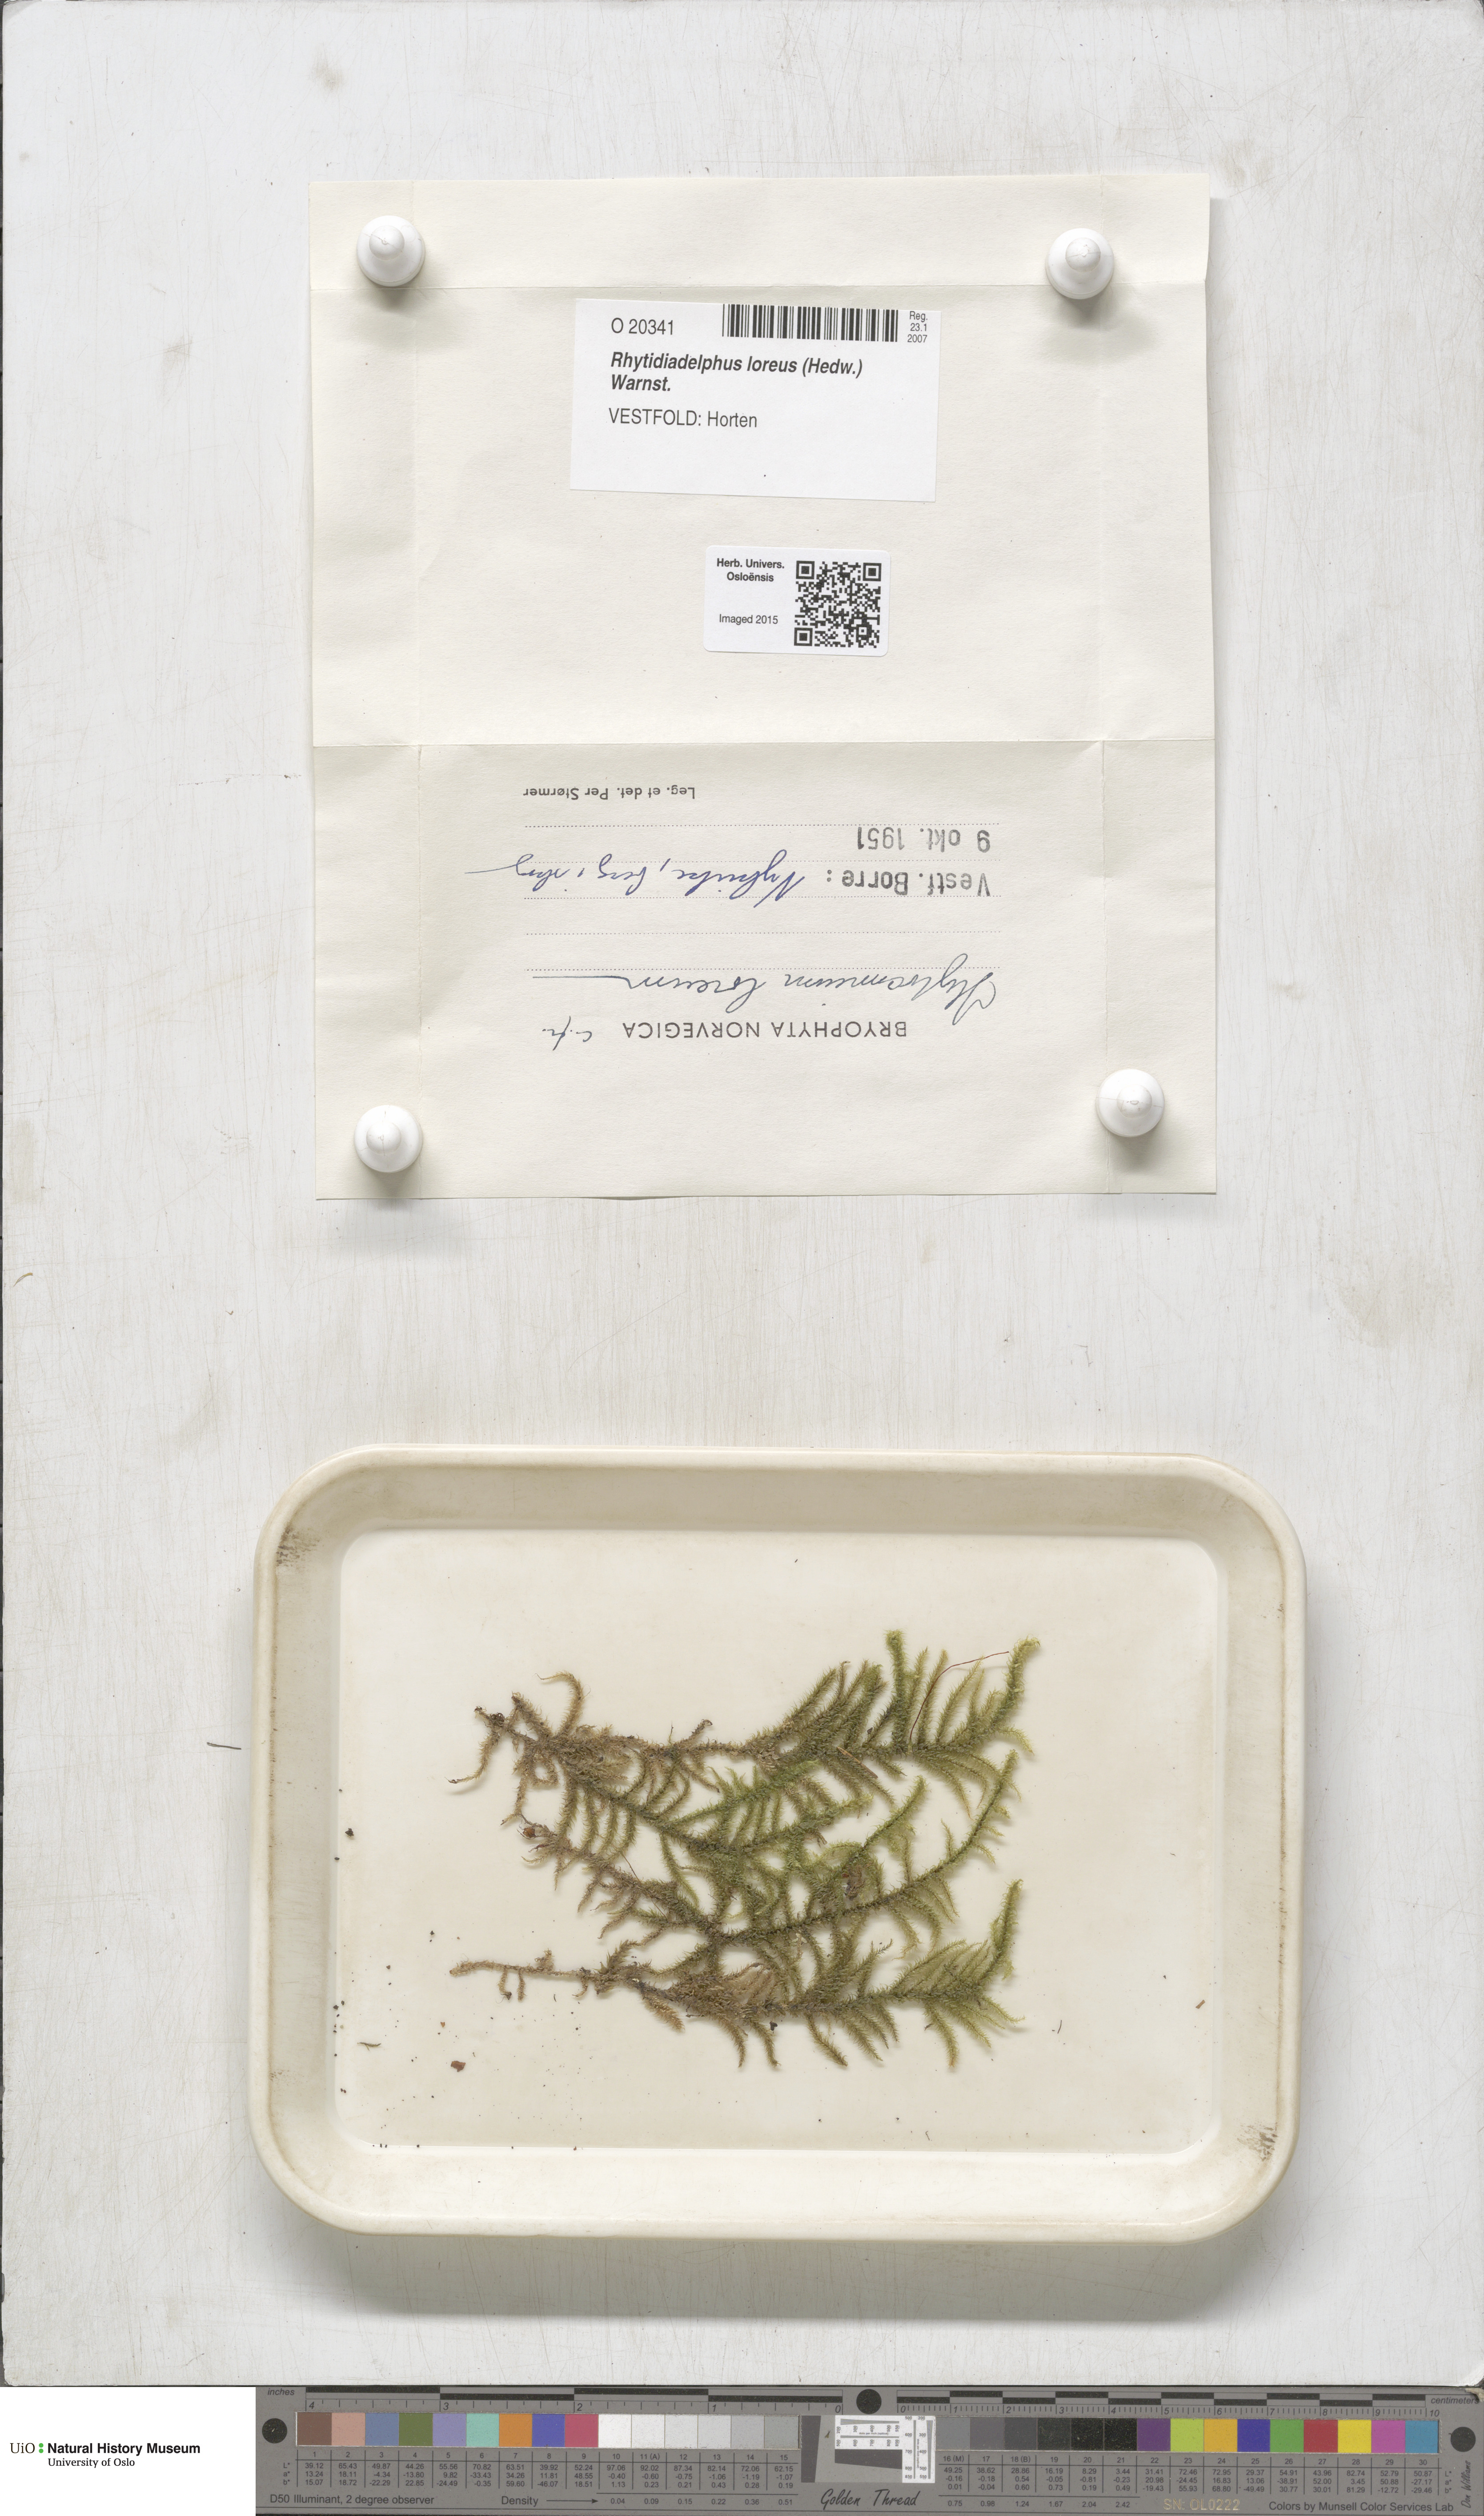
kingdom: Plantae
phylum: Bryophyta
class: Bryopsida
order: Hypnales
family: Hylocomiaceae
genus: Rhytidiadelphus
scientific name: Rhytidiadelphus loreus
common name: Lanky moss
